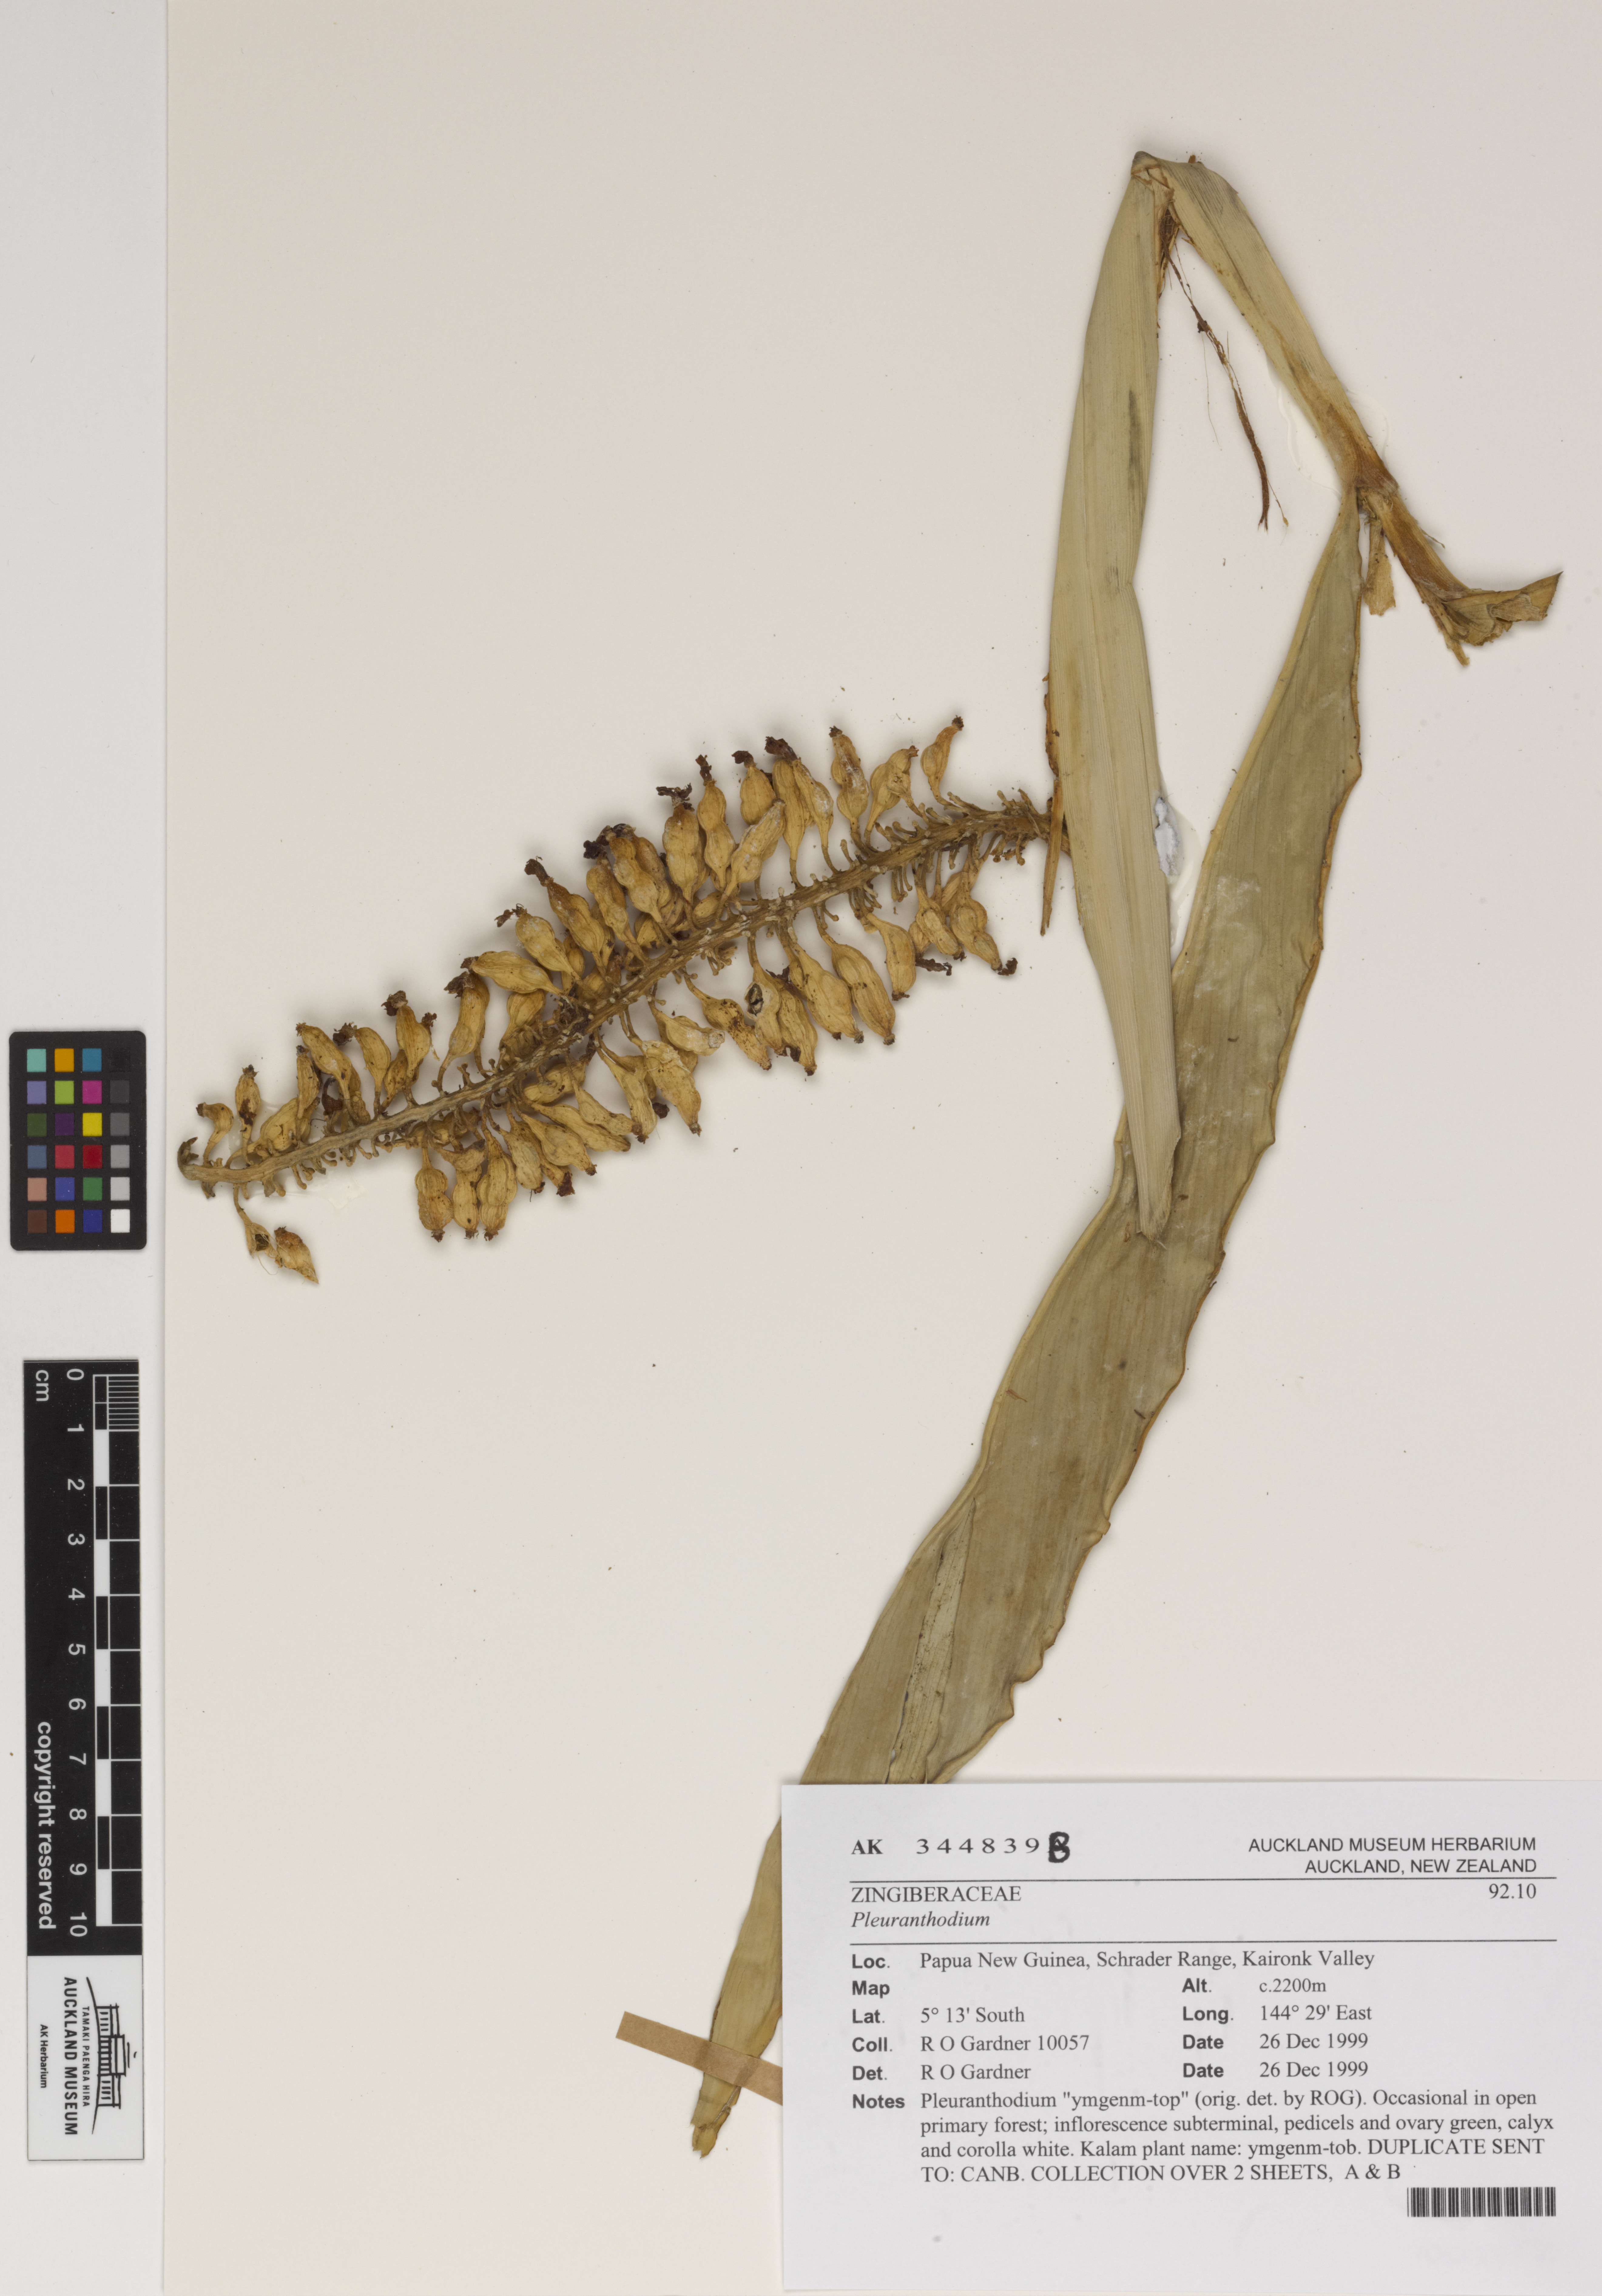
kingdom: Plantae
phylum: Tracheophyta
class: Liliopsida
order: Zingiberales
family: Zingiberaceae
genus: Pleuranthodium
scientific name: Pleuranthodium
